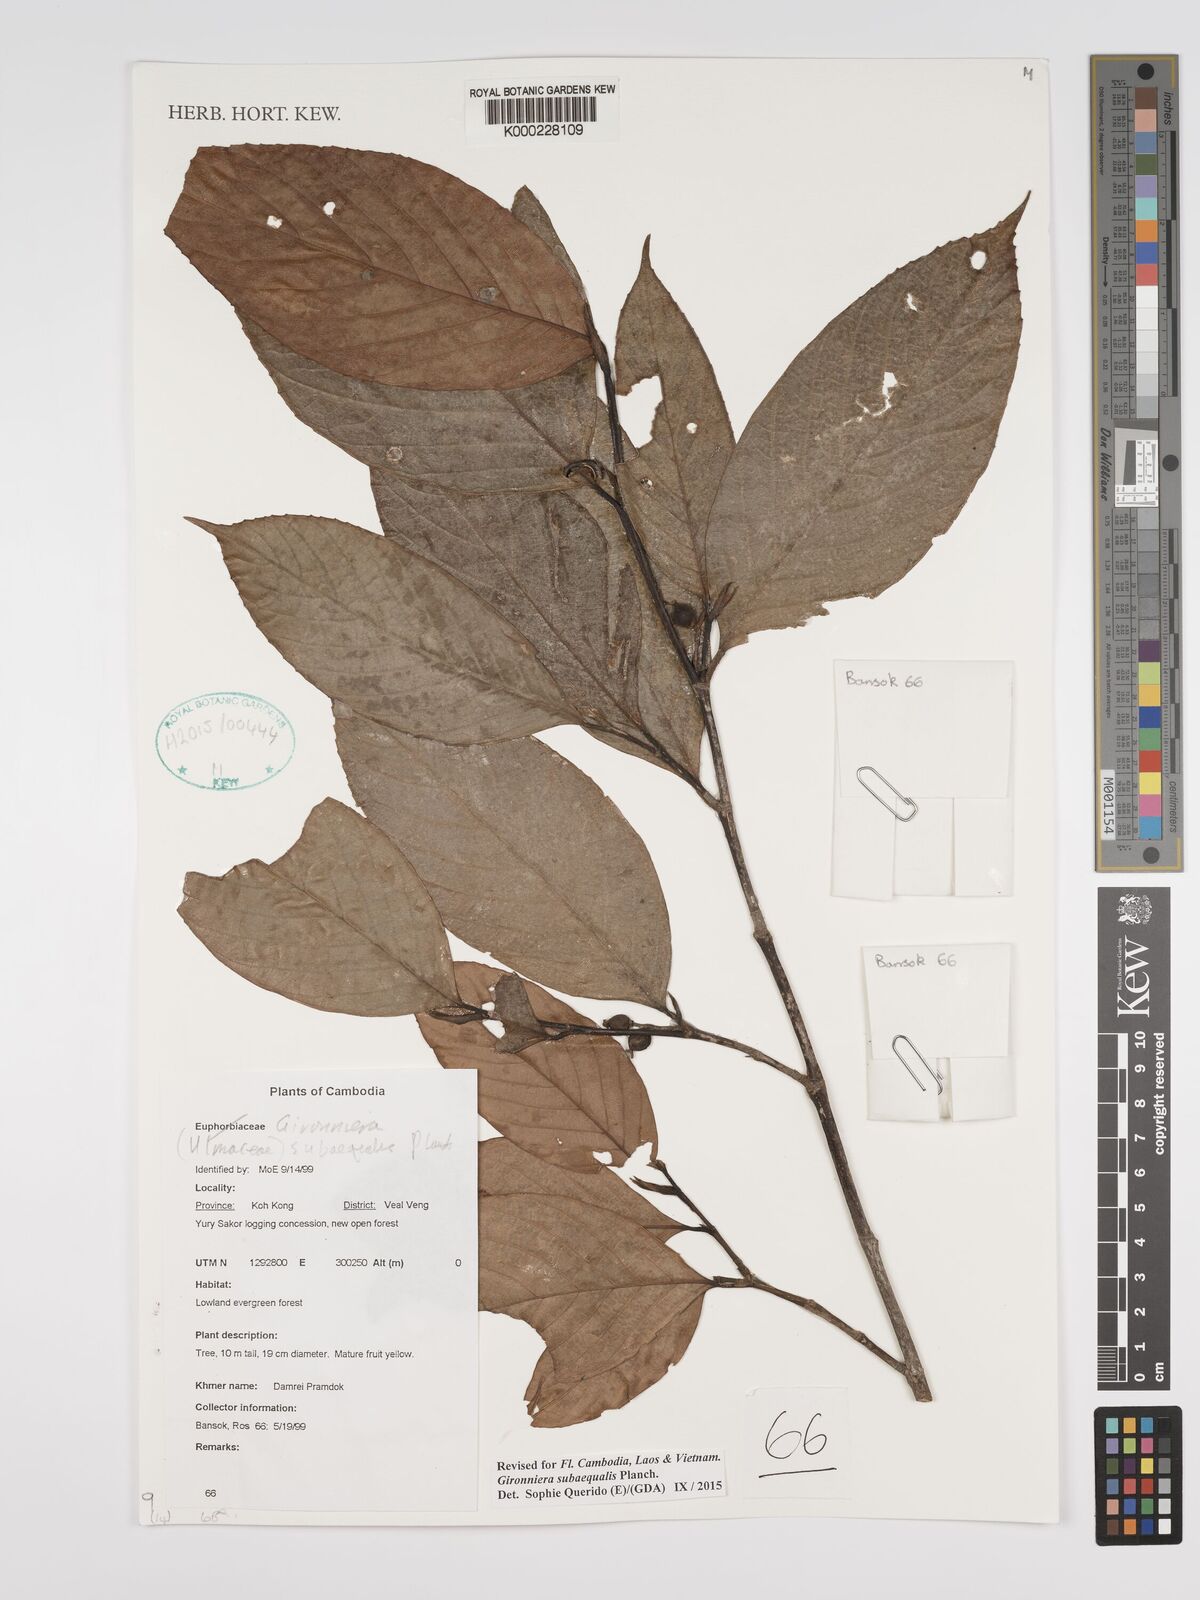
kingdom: Plantae
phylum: Tracheophyta
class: Magnoliopsida
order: Rosales
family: Cannabaceae
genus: Gironniera
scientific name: Gironniera
